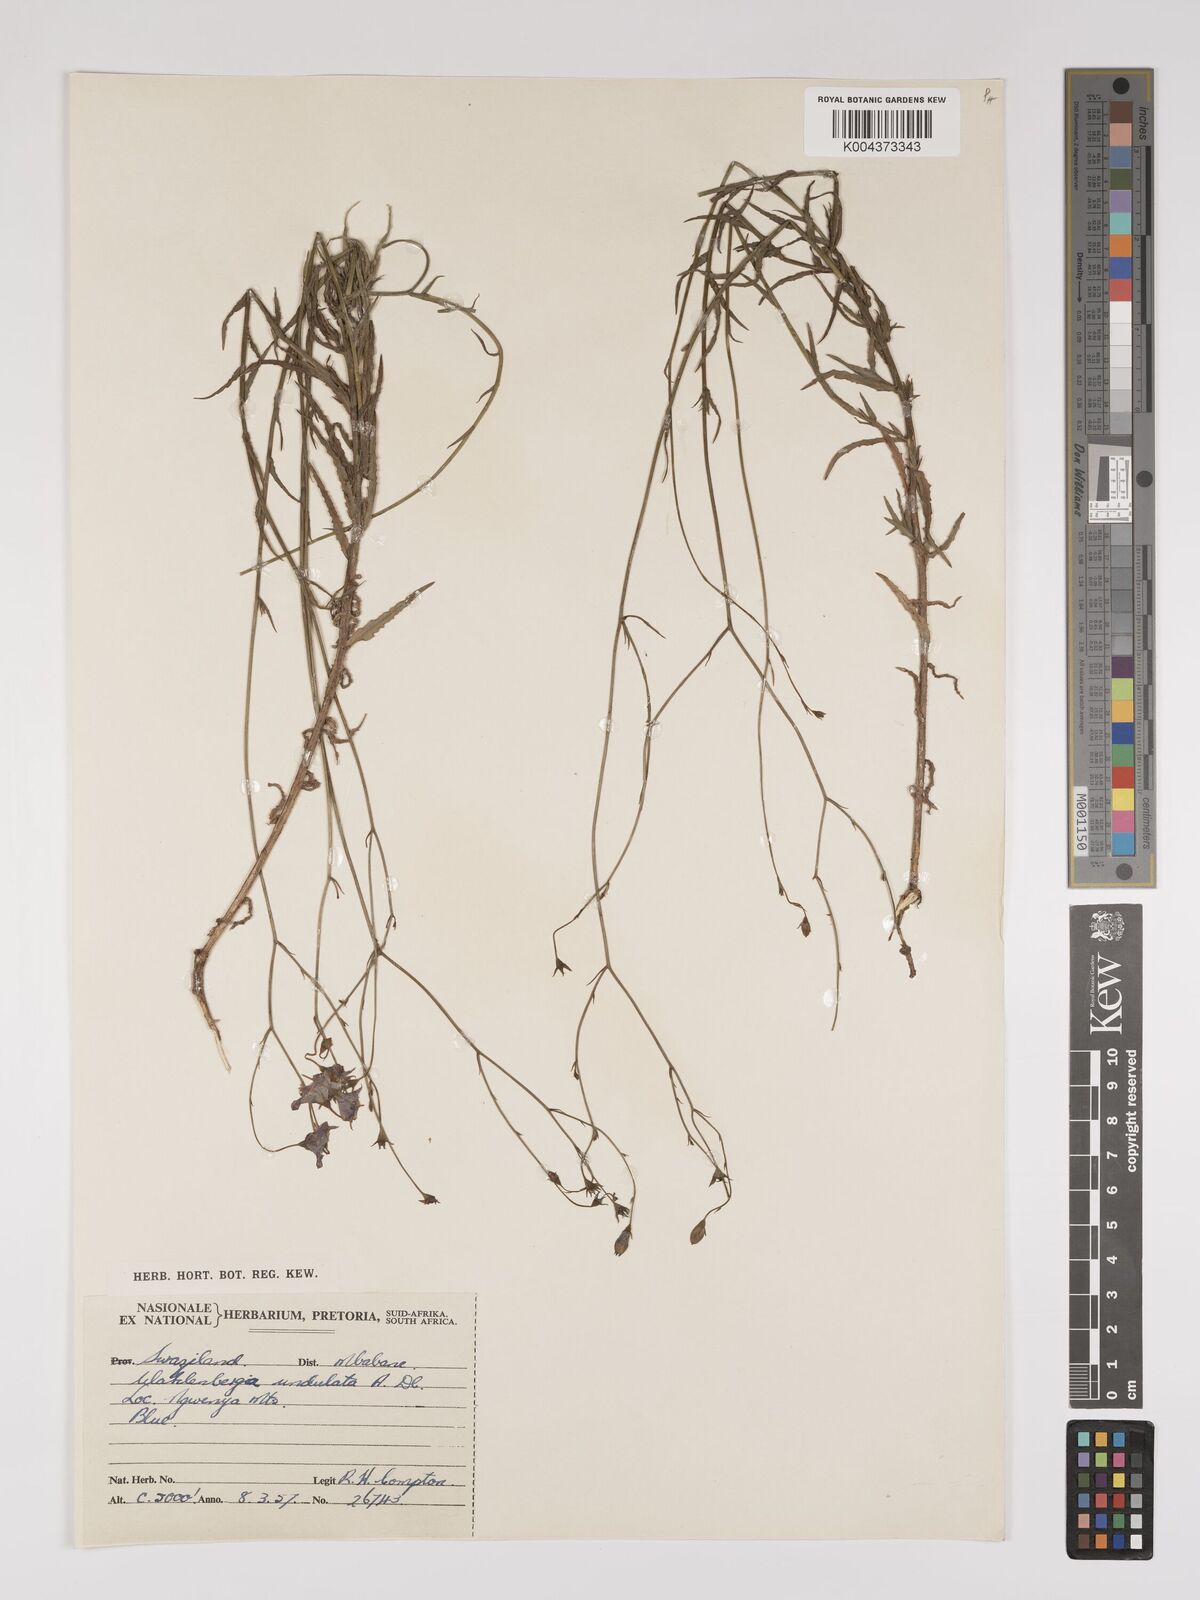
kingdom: Plantae
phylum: Tracheophyta
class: Magnoliopsida
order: Asterales
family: Campanulaceae
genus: Wahlenbergia
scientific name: Wahlenbergia undulata
